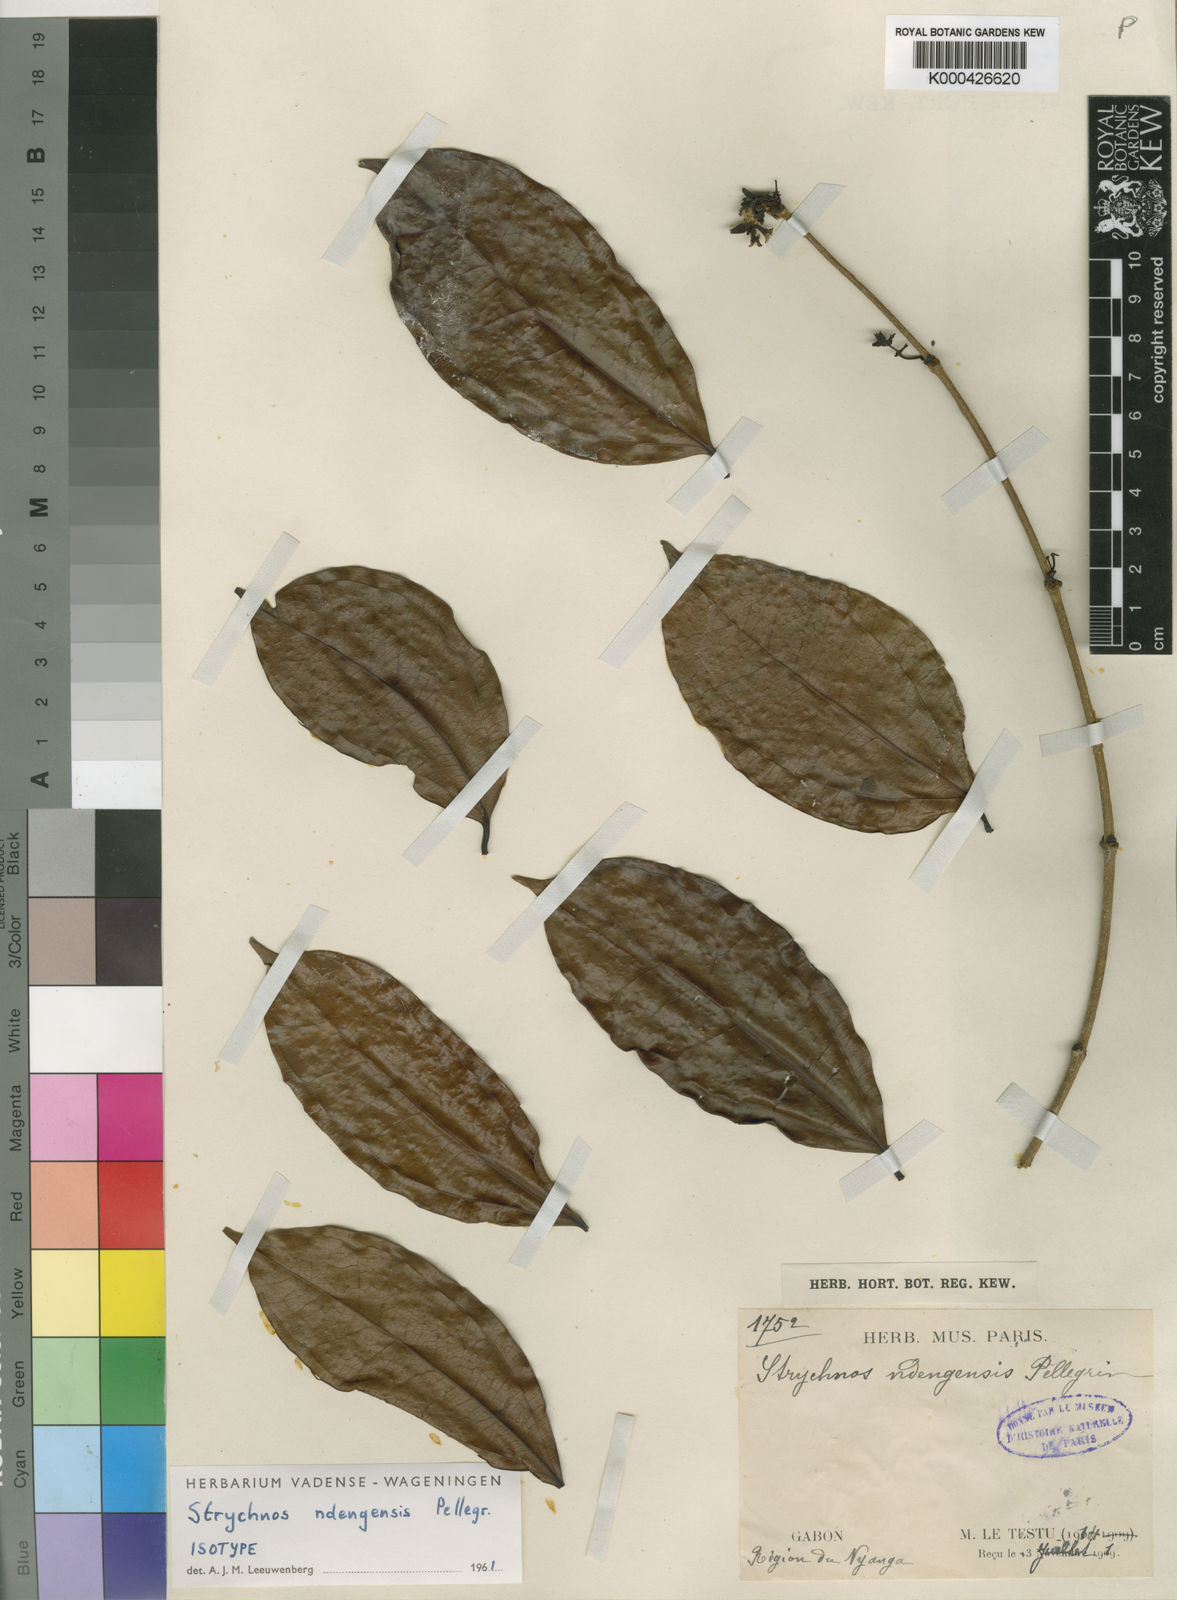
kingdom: Plantae
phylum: Tracheophyta
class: Magnoliopsida
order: Gentianales
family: Loganiaceae
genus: Strychnos
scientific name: Strychnos ndengensis
